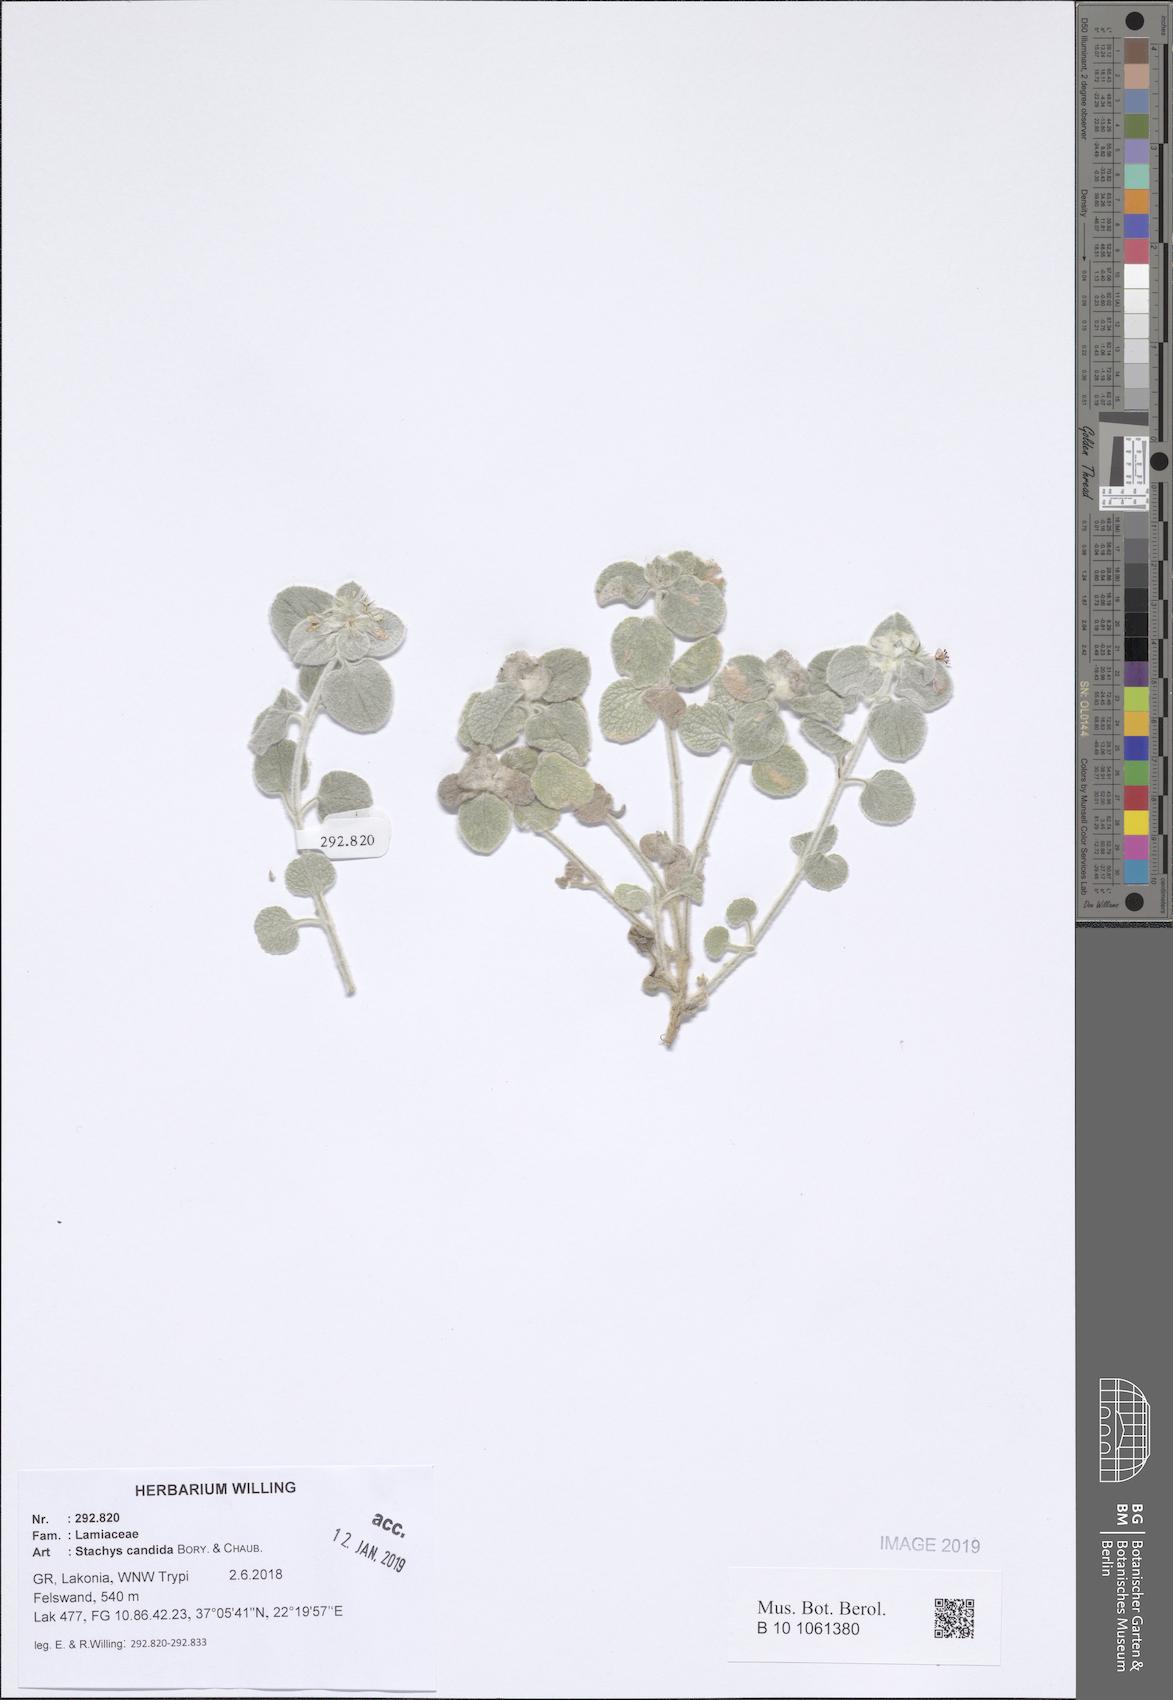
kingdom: Plantae
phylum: Tracheophyta
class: Magnoliopsida
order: Lamiales
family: Lamiaceae
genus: Stachys
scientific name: Stachys candida
